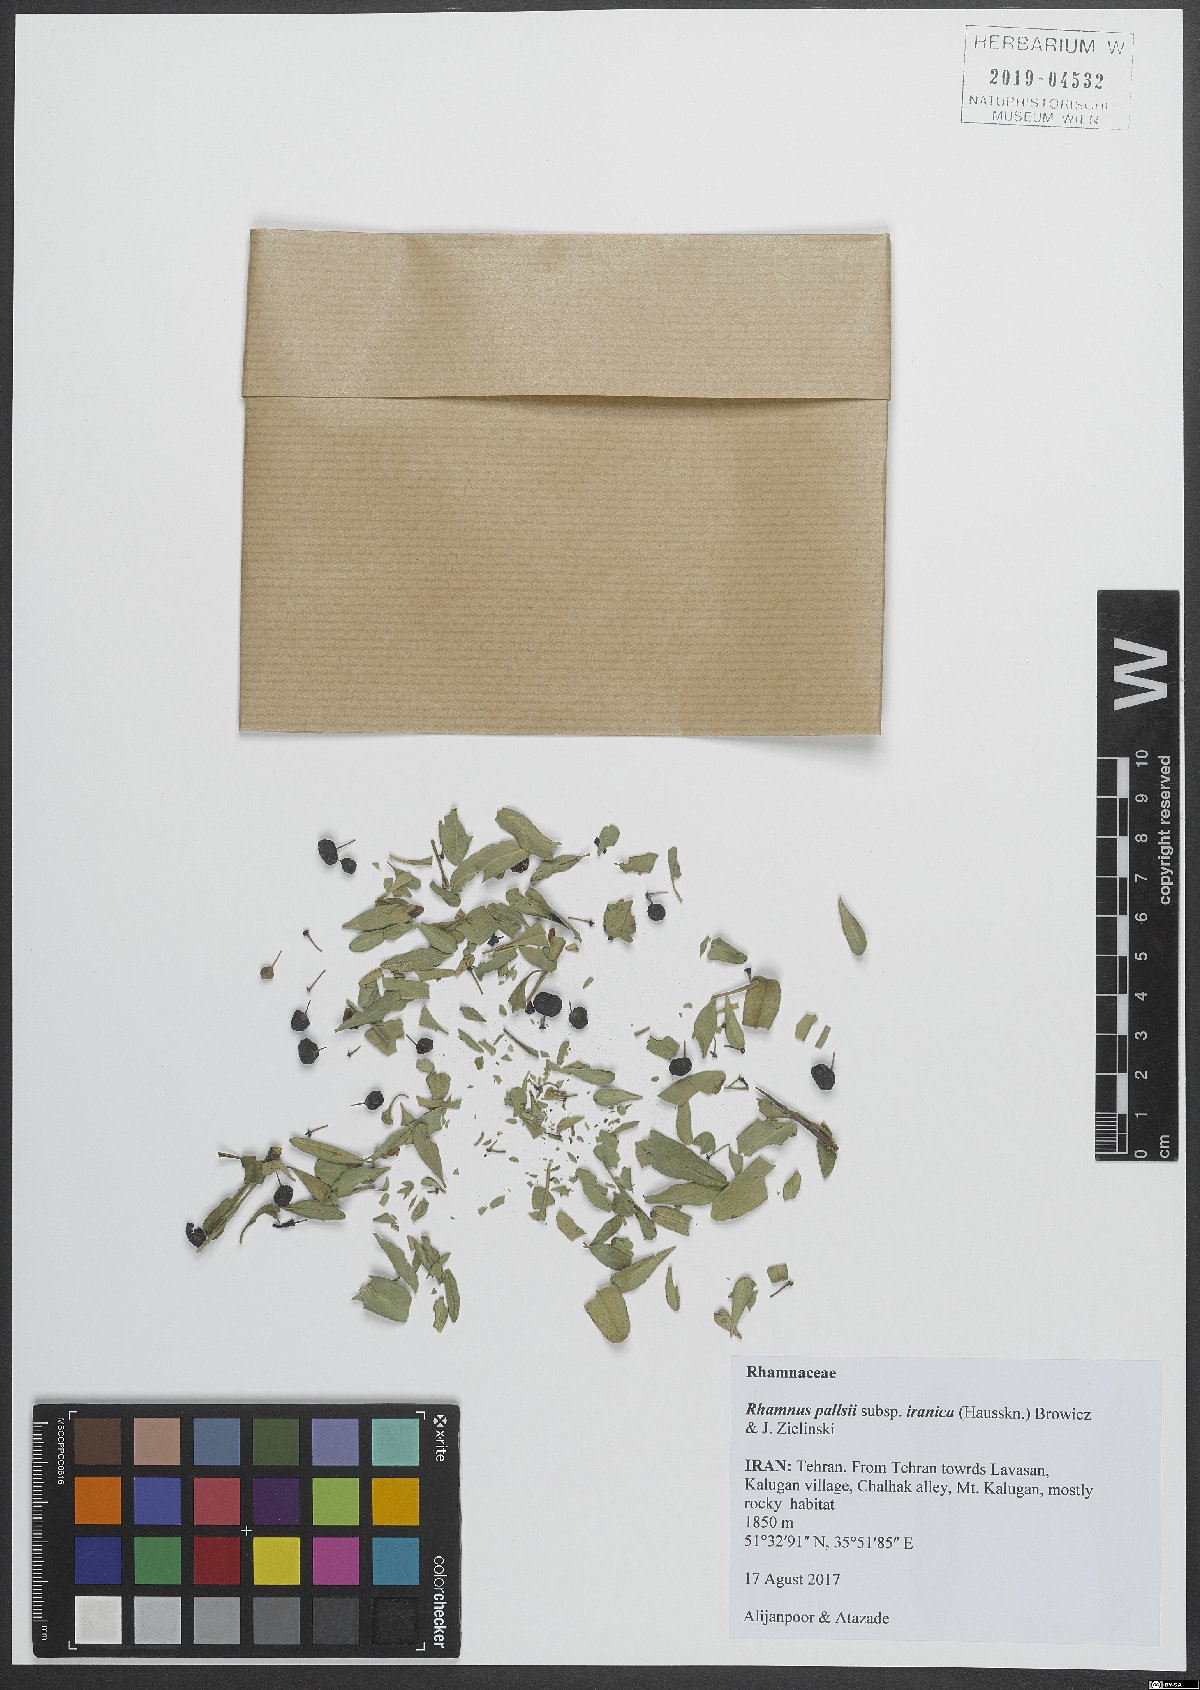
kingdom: Plantae
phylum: Tracheophyta
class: Magnoliopsida
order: Rosales
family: Rhamnaceae
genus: Rhamnus
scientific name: Rhamnus erythroxyloides
